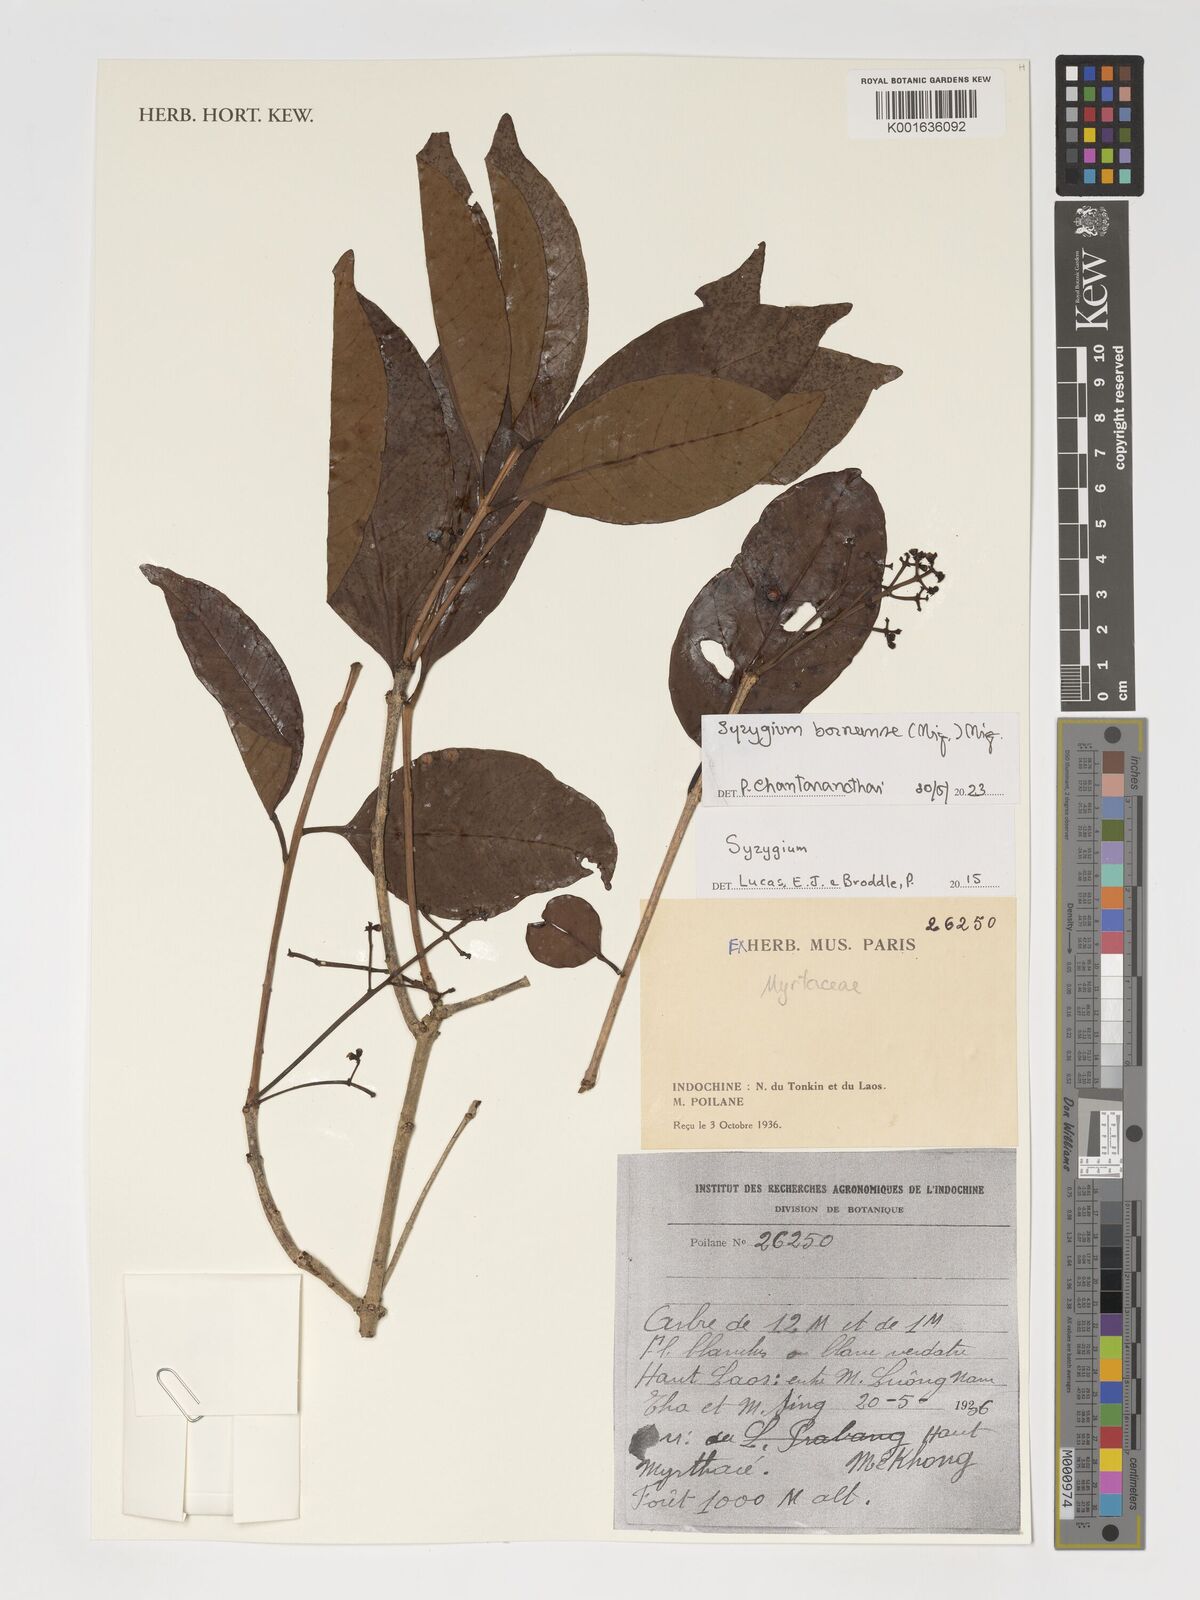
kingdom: Plantae
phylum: Tracheophyta
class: Magnoliopsida
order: Myrtales
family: Myrtaceae
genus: Syzygium
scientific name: Syzygium borneense
